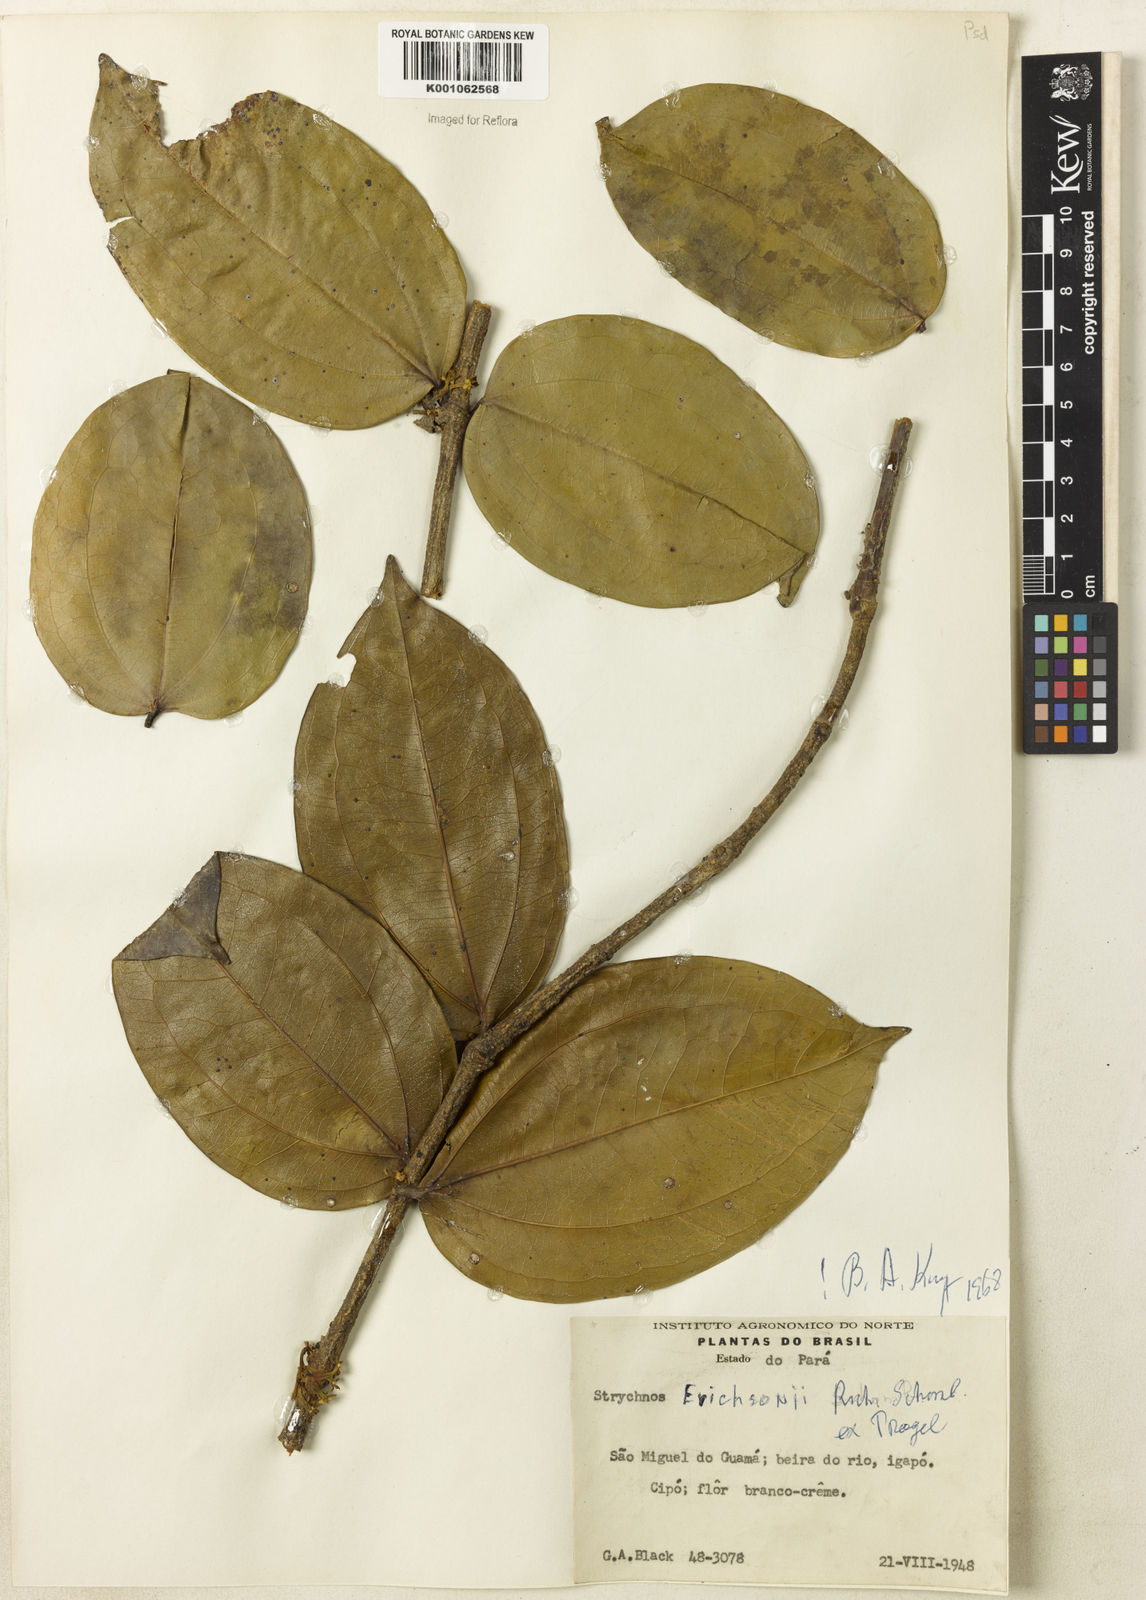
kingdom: Plantae
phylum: Tracheophyta
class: Magnoliopsida
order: Gentianales
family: Loganiaceae
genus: Strychnos
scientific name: Strychnos erichsonii
